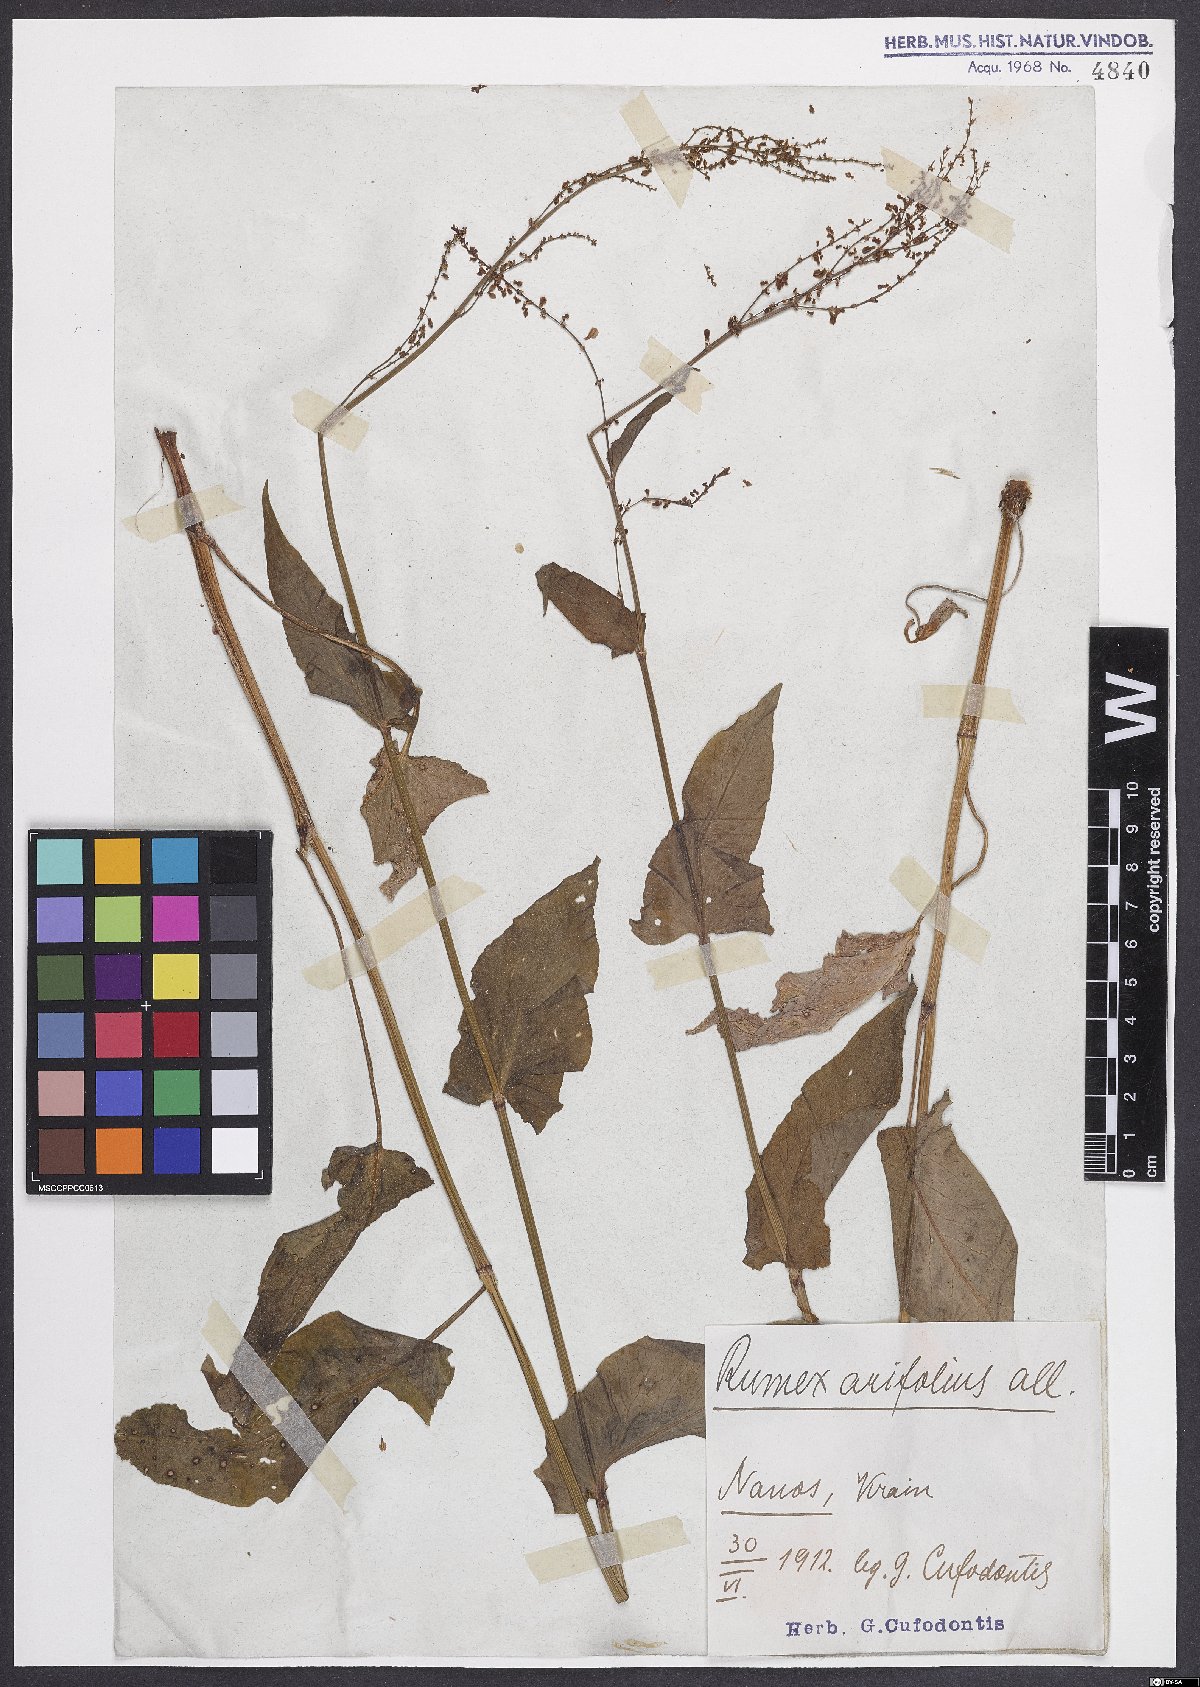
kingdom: Plantae
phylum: Tracheophyta
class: Magnoliopsida
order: Caryophyllales
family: Polygonaceae
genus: Rumex
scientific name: Rumex arifolius
